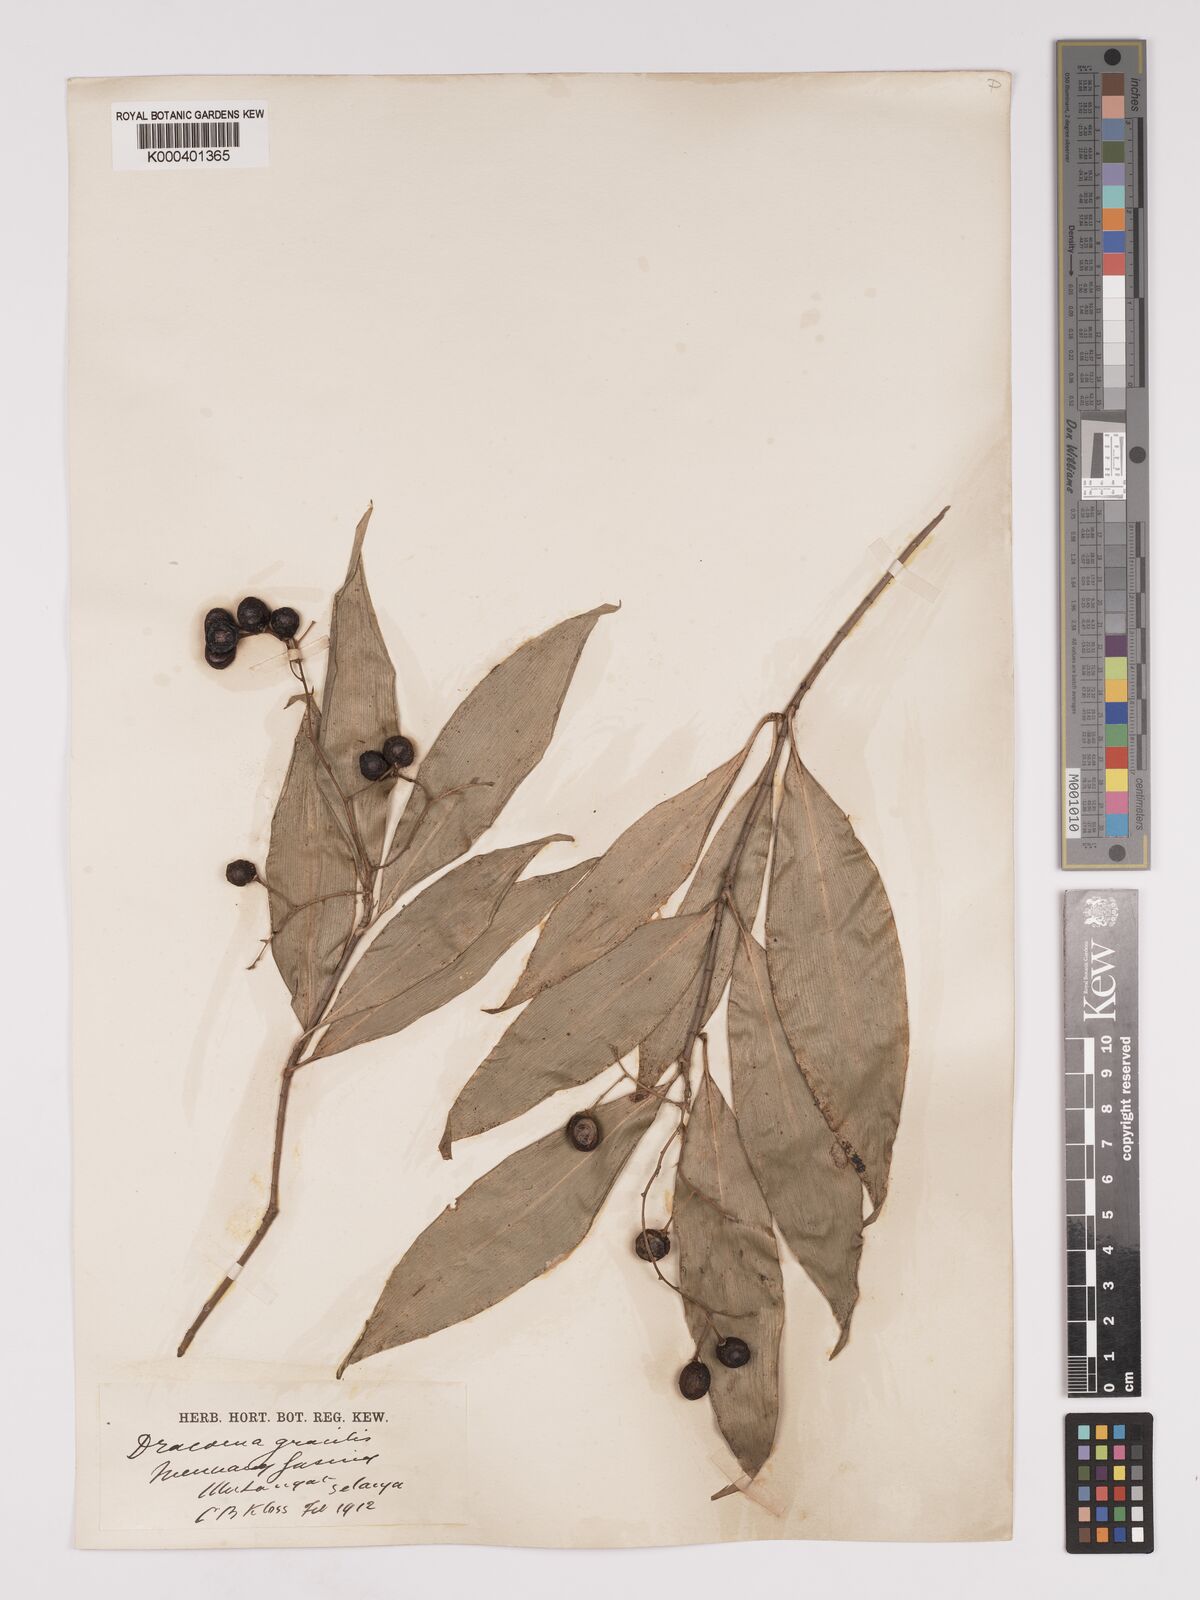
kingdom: Plantae
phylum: Tracheophyta
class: Liliopsida
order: Asparagales
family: Asparagaceae
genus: Dracaena
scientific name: Dracaena elliptica
